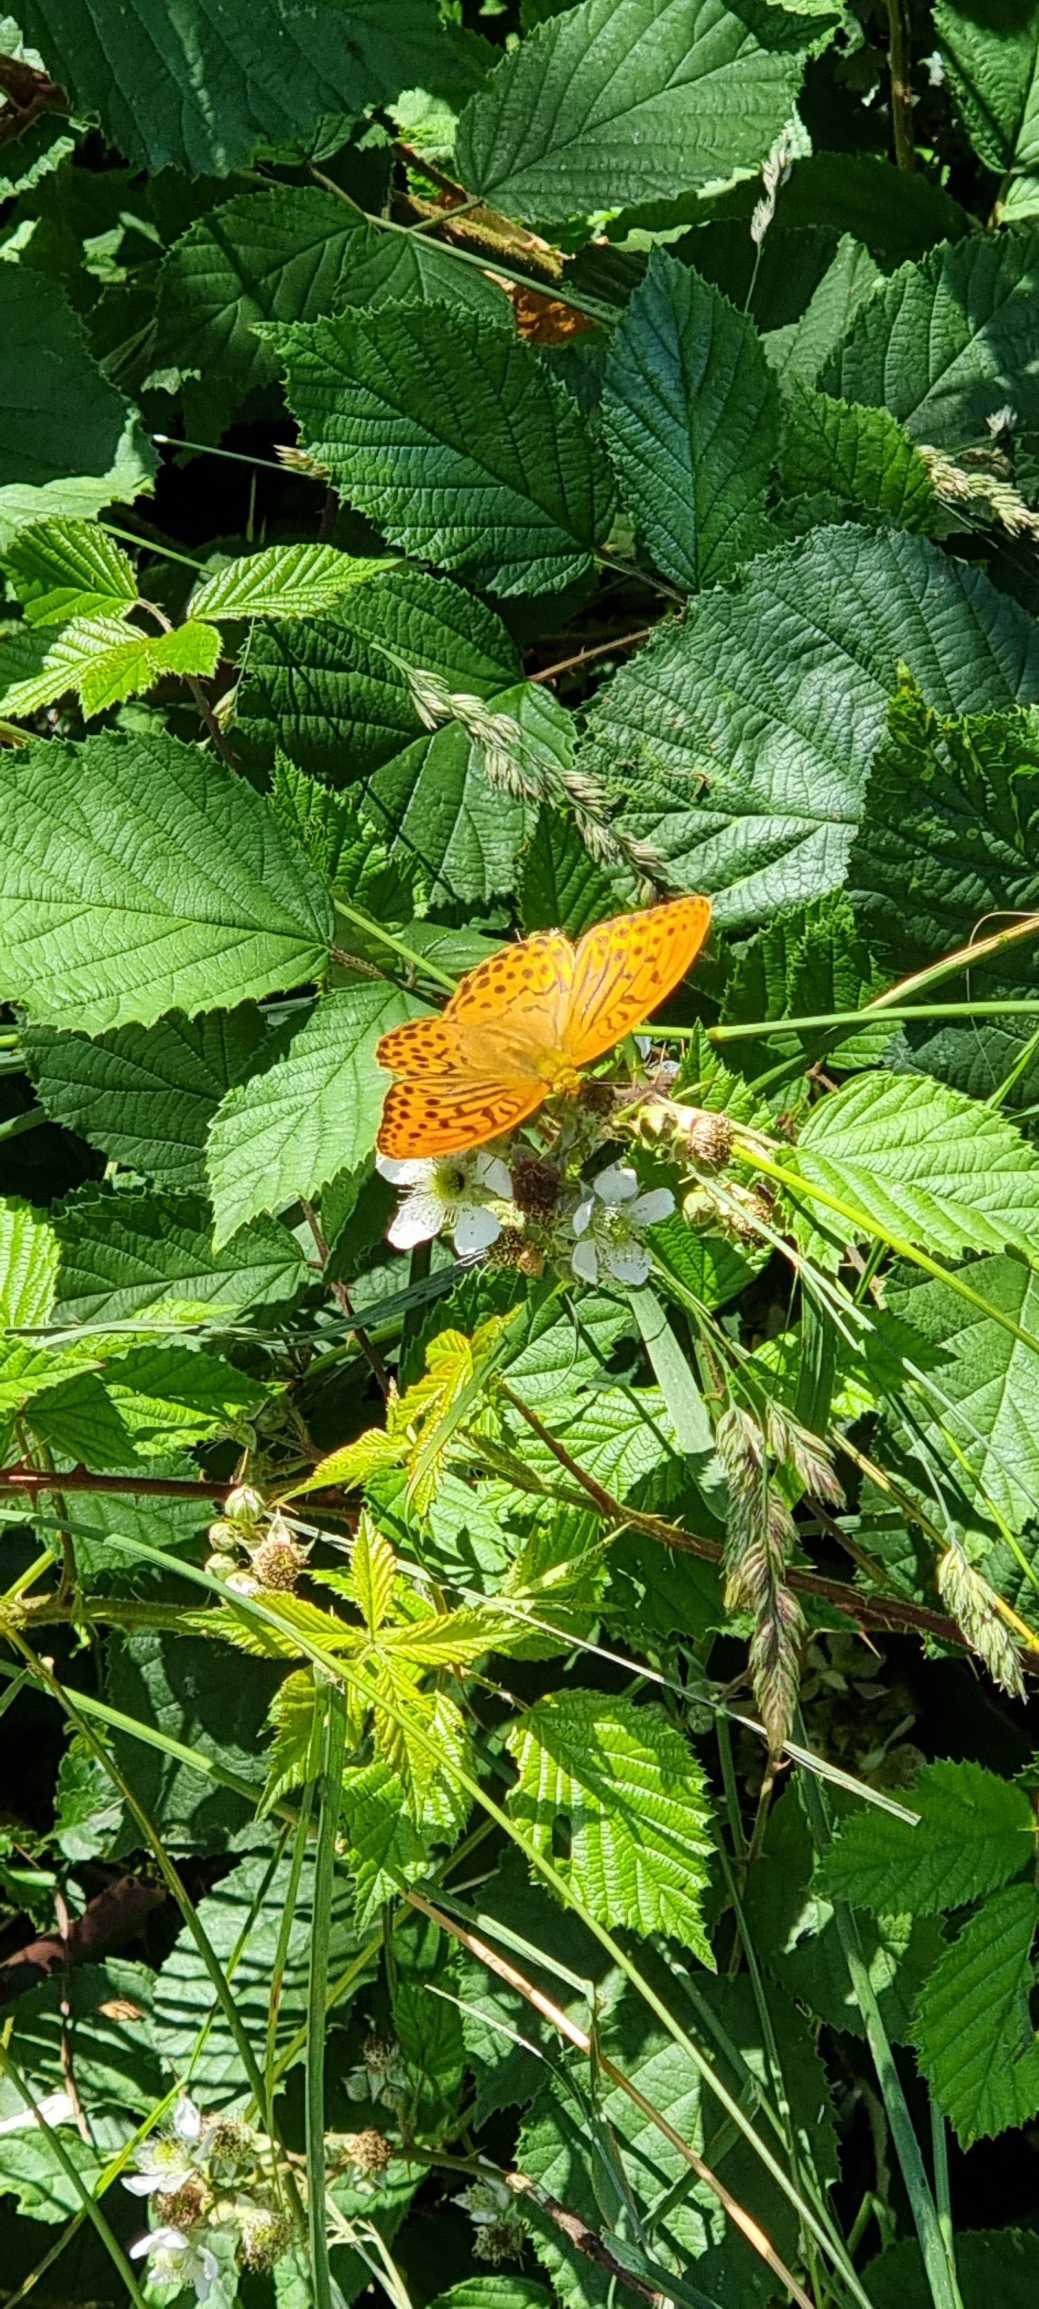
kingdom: Animalia
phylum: Arthropoda
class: Insecta
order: Lepidoptera
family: Nymphalidae
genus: Argynnis
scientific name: Argynnis paphia
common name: Kejserkåbe
